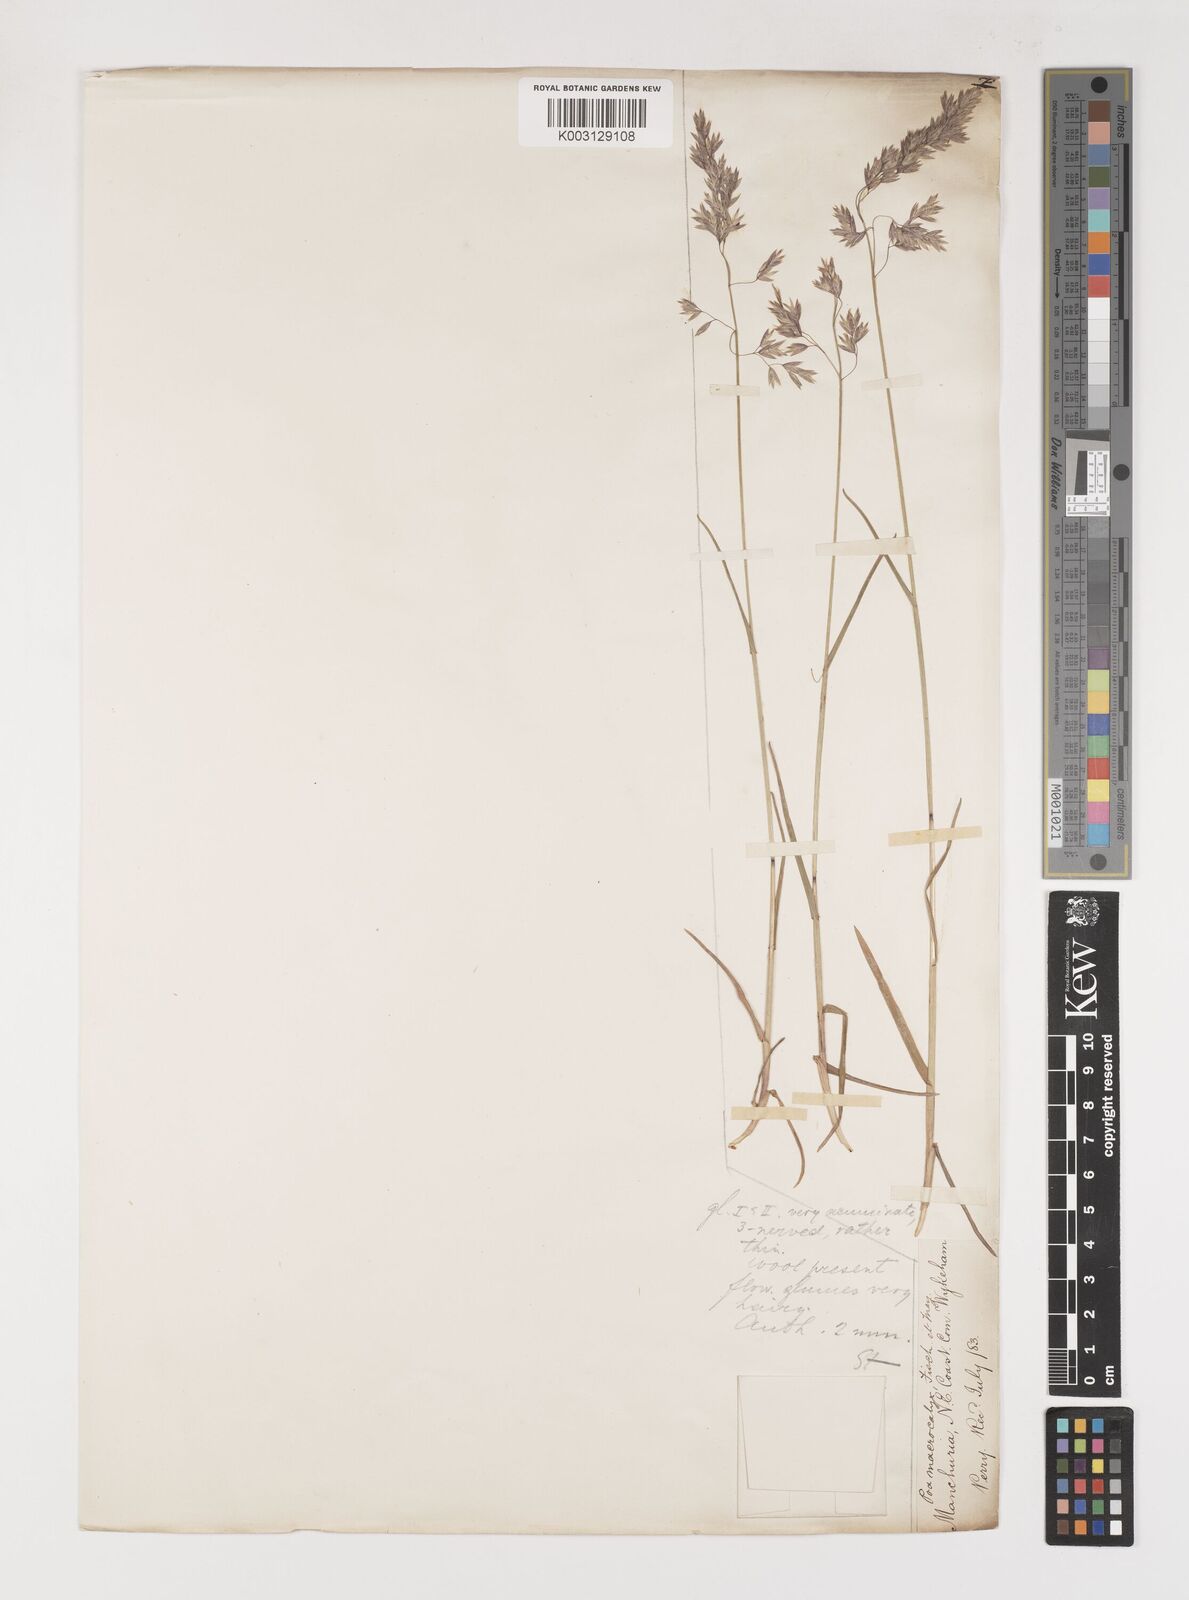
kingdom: Plantae
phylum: Tracheophyta
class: Liliopsida
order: Poales
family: Poaceae
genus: Poa
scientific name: Poa macrocalyx
